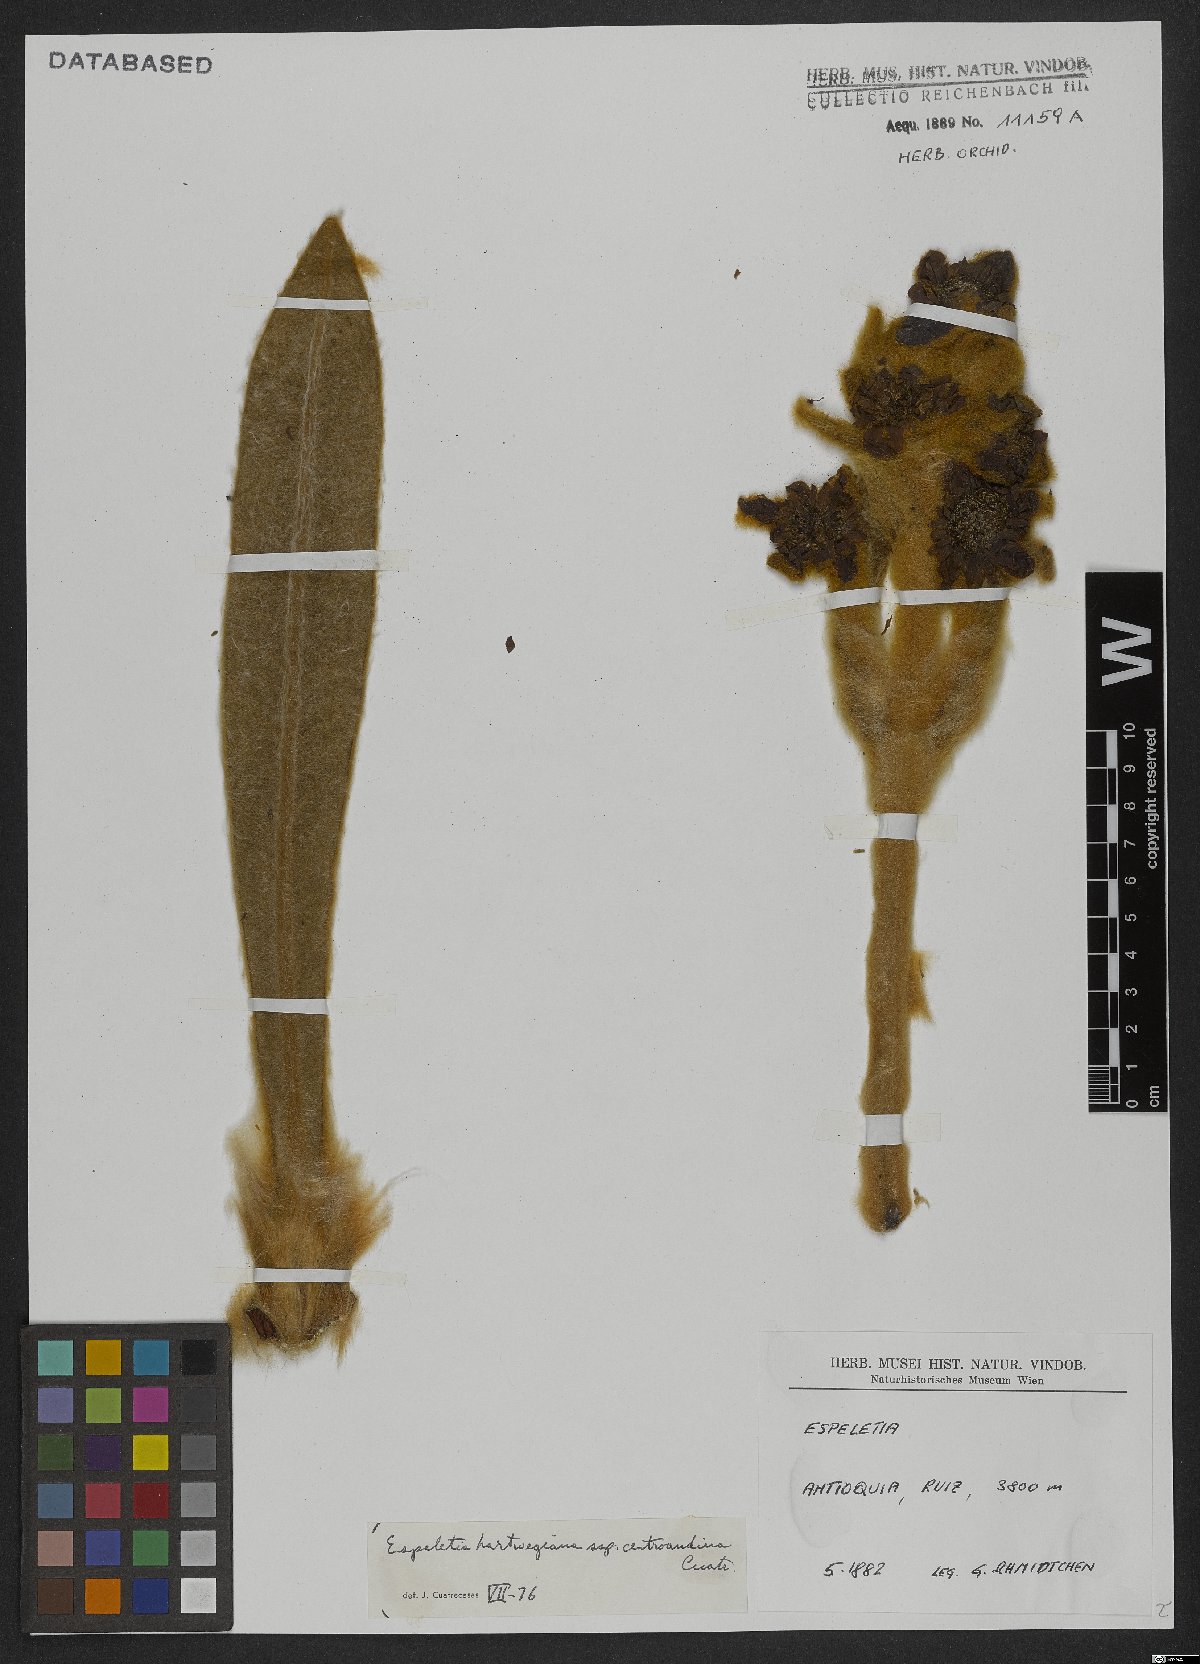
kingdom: Plantae
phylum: Tracheophyta
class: Magnoliopsida
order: Asterales
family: Asteraceae
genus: Espeletia
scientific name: Espeletia hartwegiana
